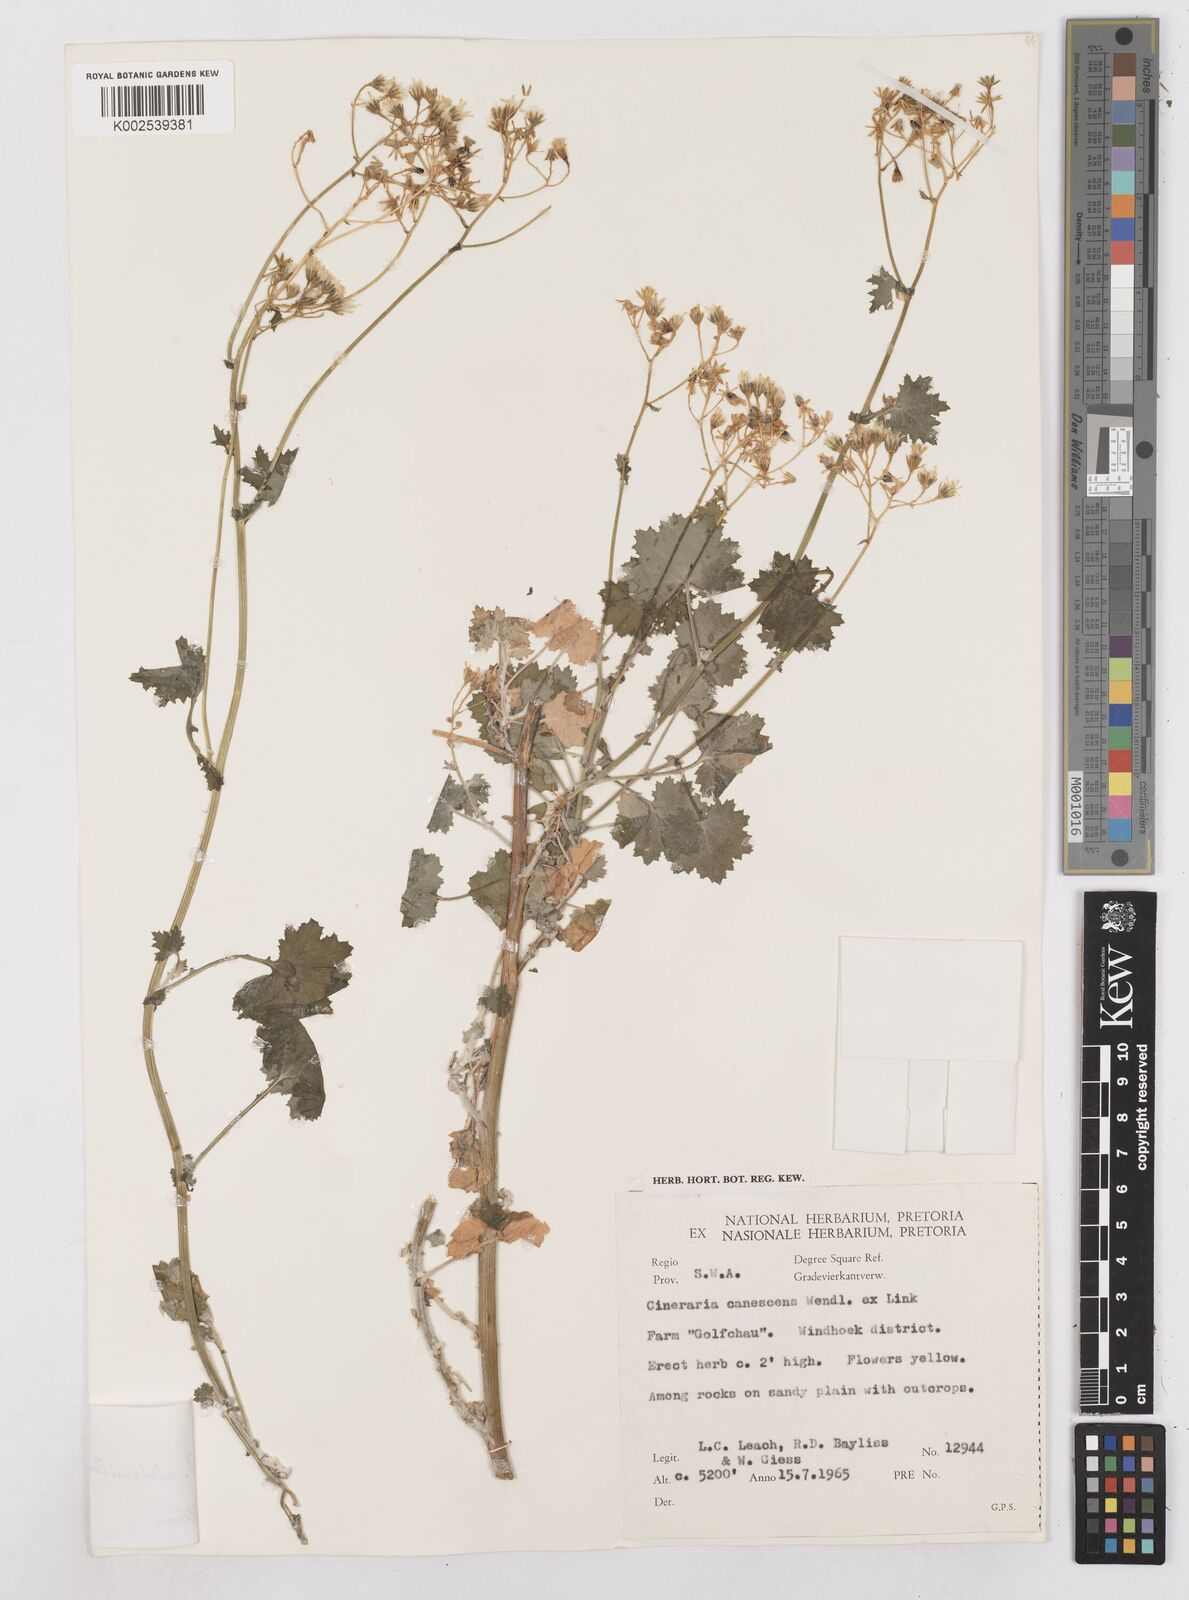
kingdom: Plantae
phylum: Tracheophyta
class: Magnoliopsida
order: Asterales
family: Asteraceae
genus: Cineraria
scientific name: Cineraria alchemilloides
